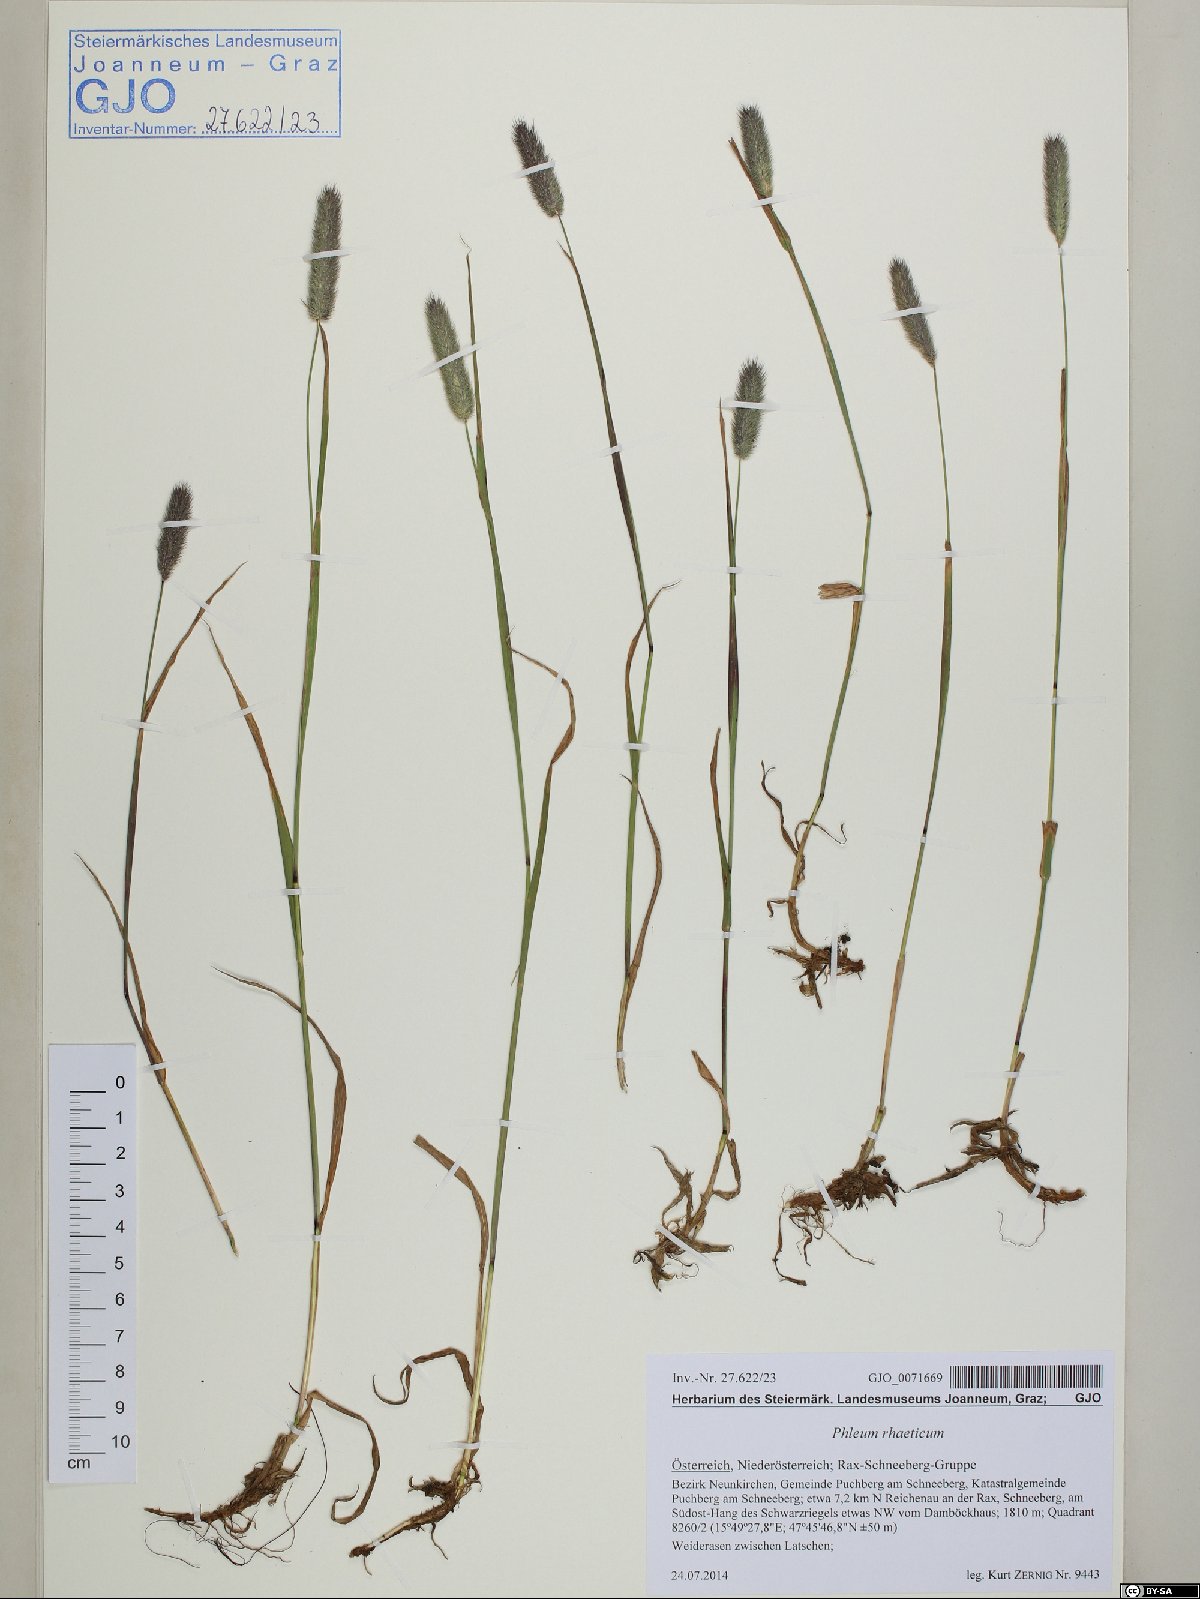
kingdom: Plantae
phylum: Tracheophyta
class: Liliopsida
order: Poales
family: Poaceae
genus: Phleum
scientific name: Phleum alpinum
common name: Alpine cat's-tail
